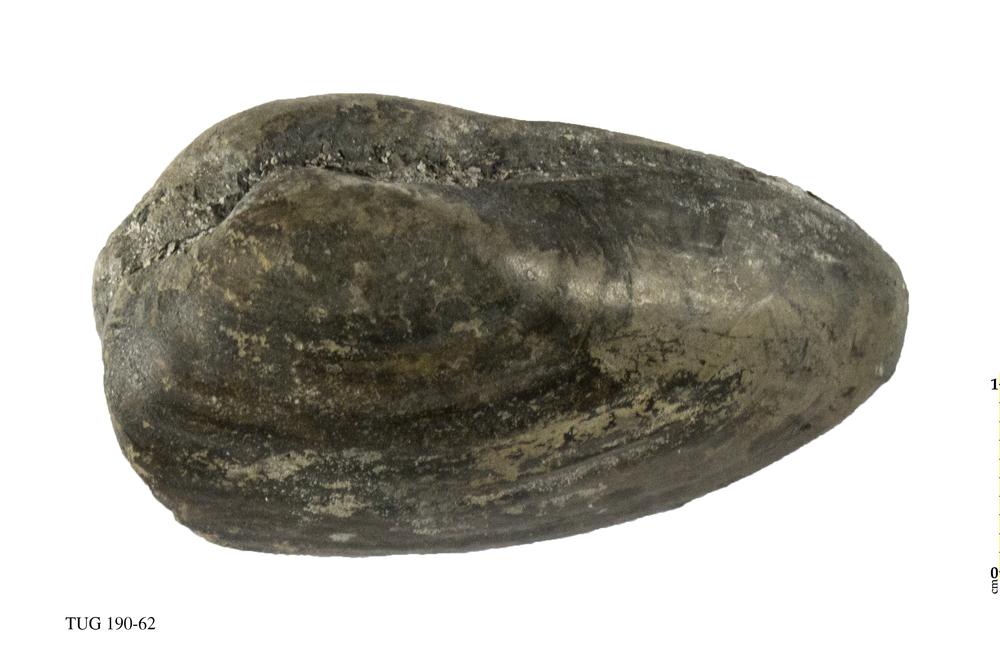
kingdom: Animalia
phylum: Mollusca
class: Bivalvia
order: Cardiida
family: Semelidae
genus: Amphidesma
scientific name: Amphidesma
